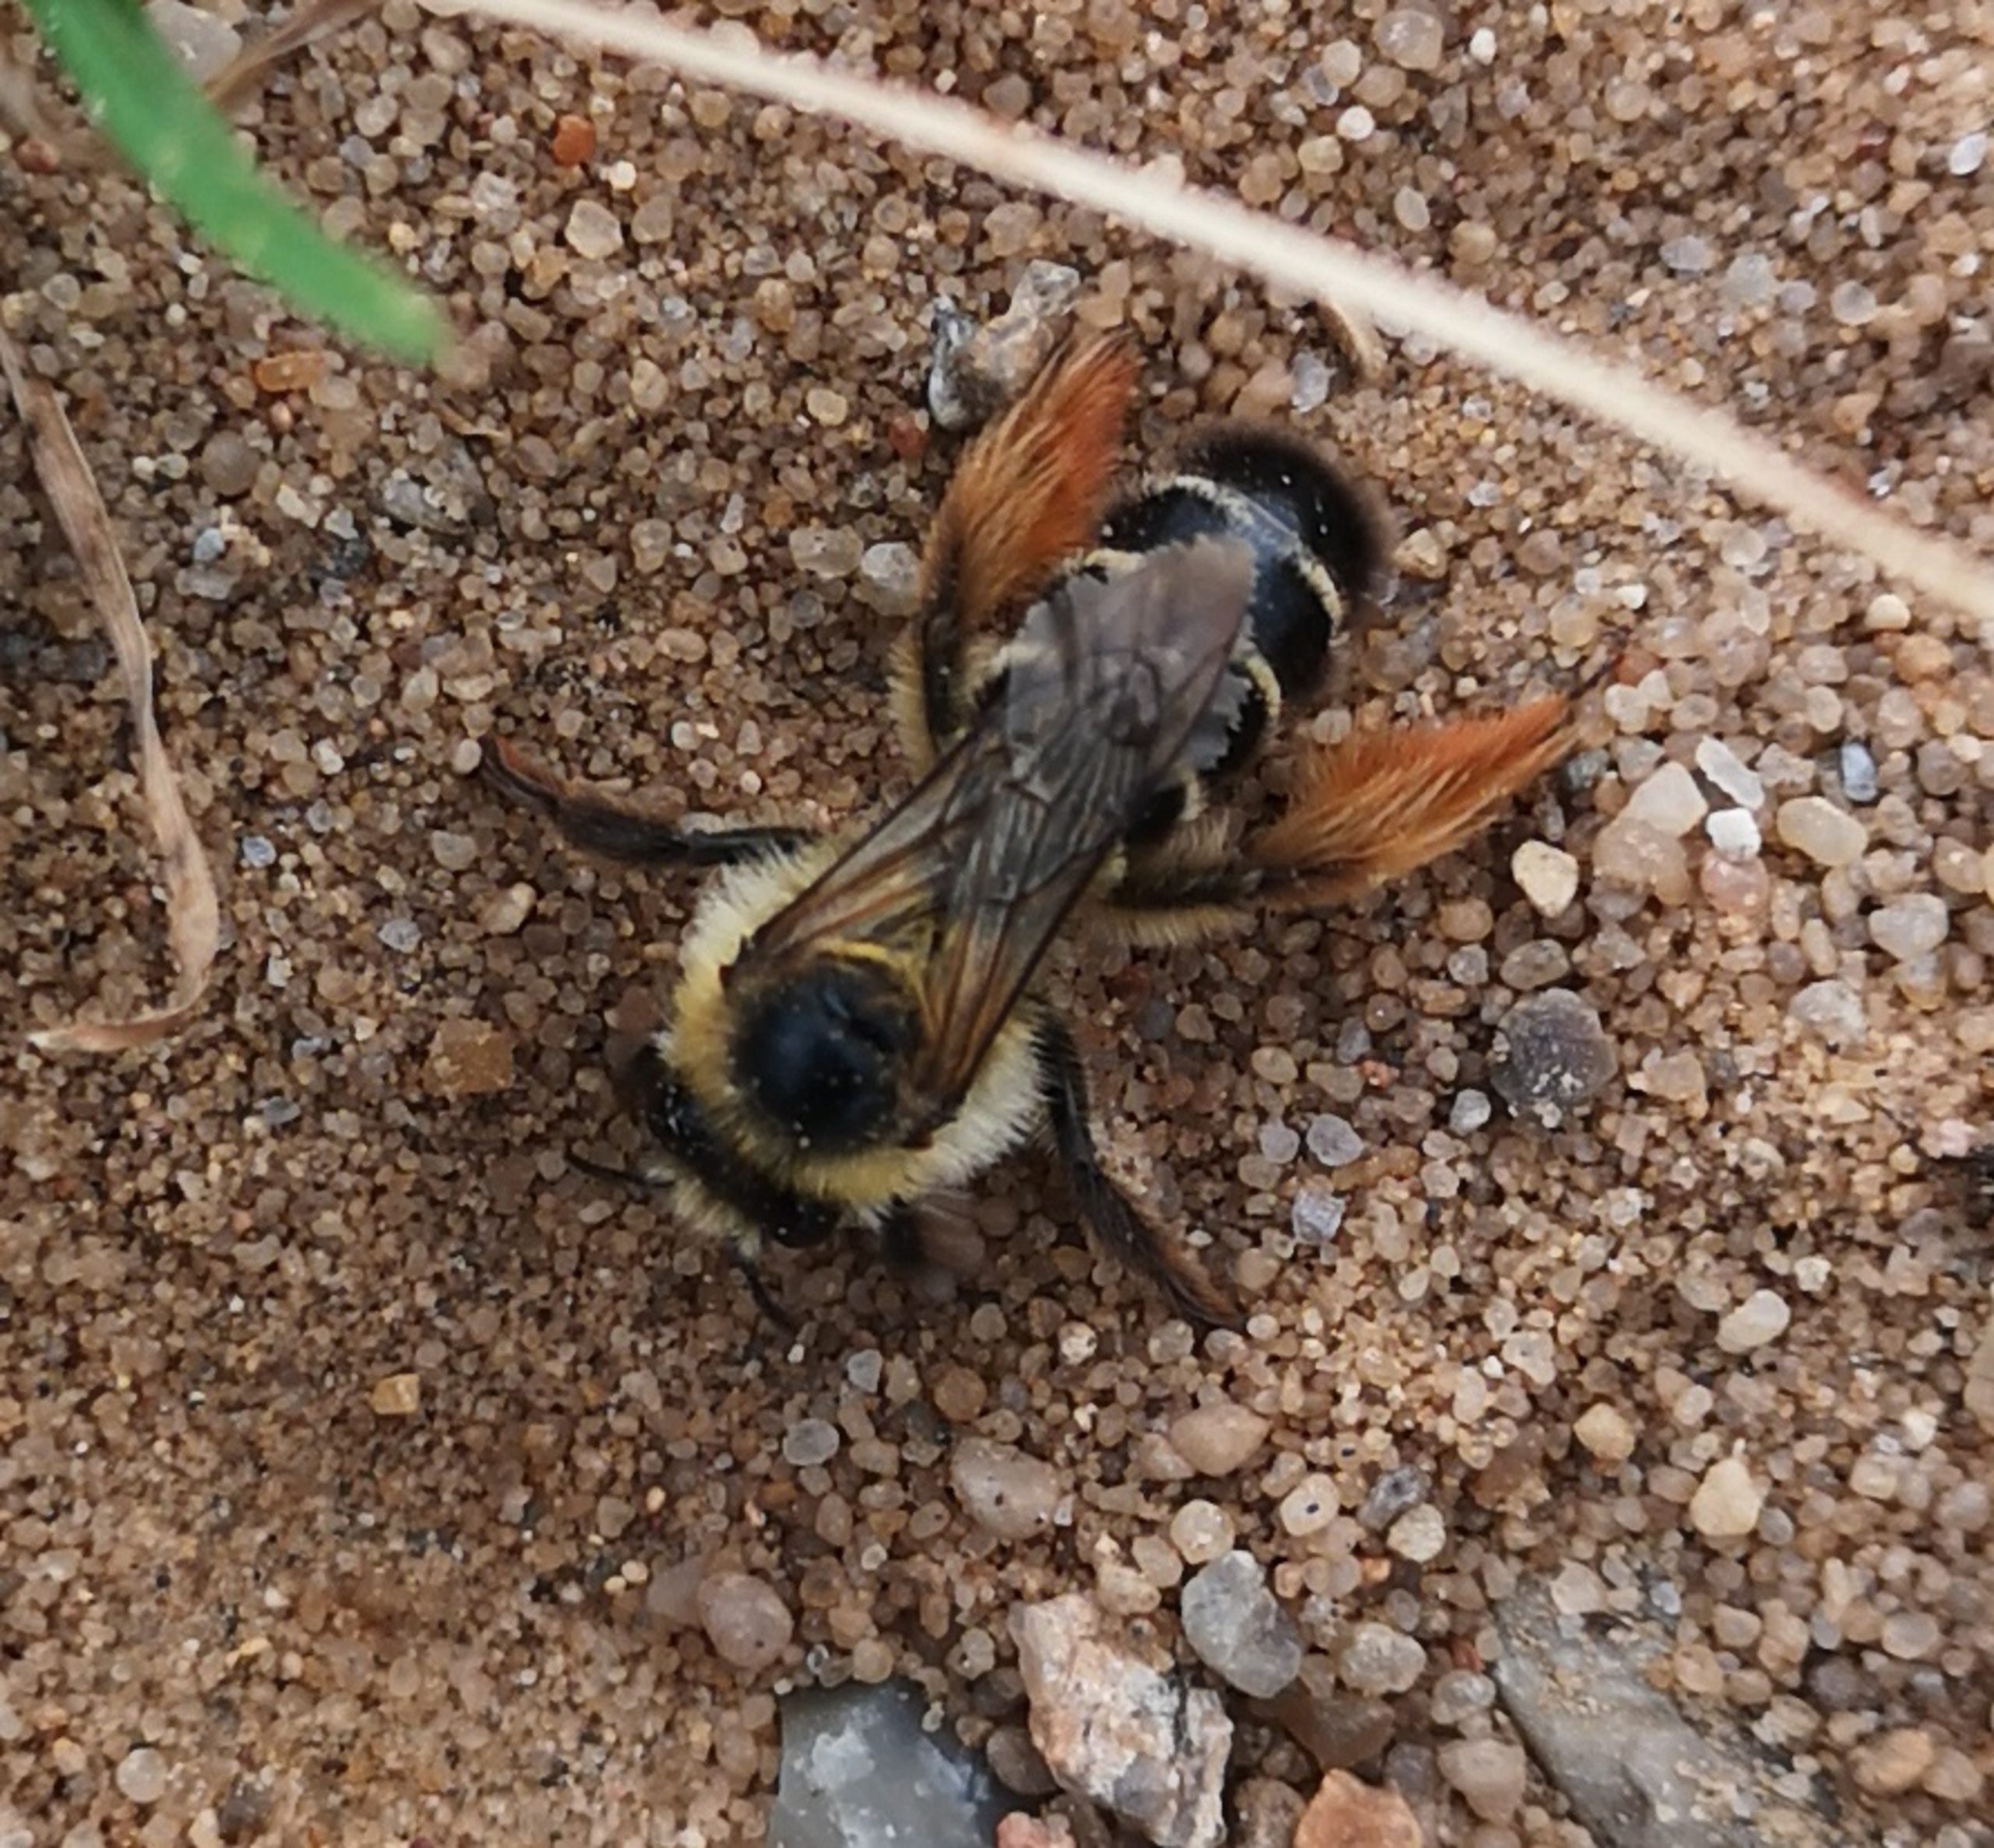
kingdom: Animalia
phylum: Arthropoda
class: Insecta
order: Hymenoptera
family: Melittidae
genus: Dasypoda
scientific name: Dasypoda hirtipes
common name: Pragtbuksebi
